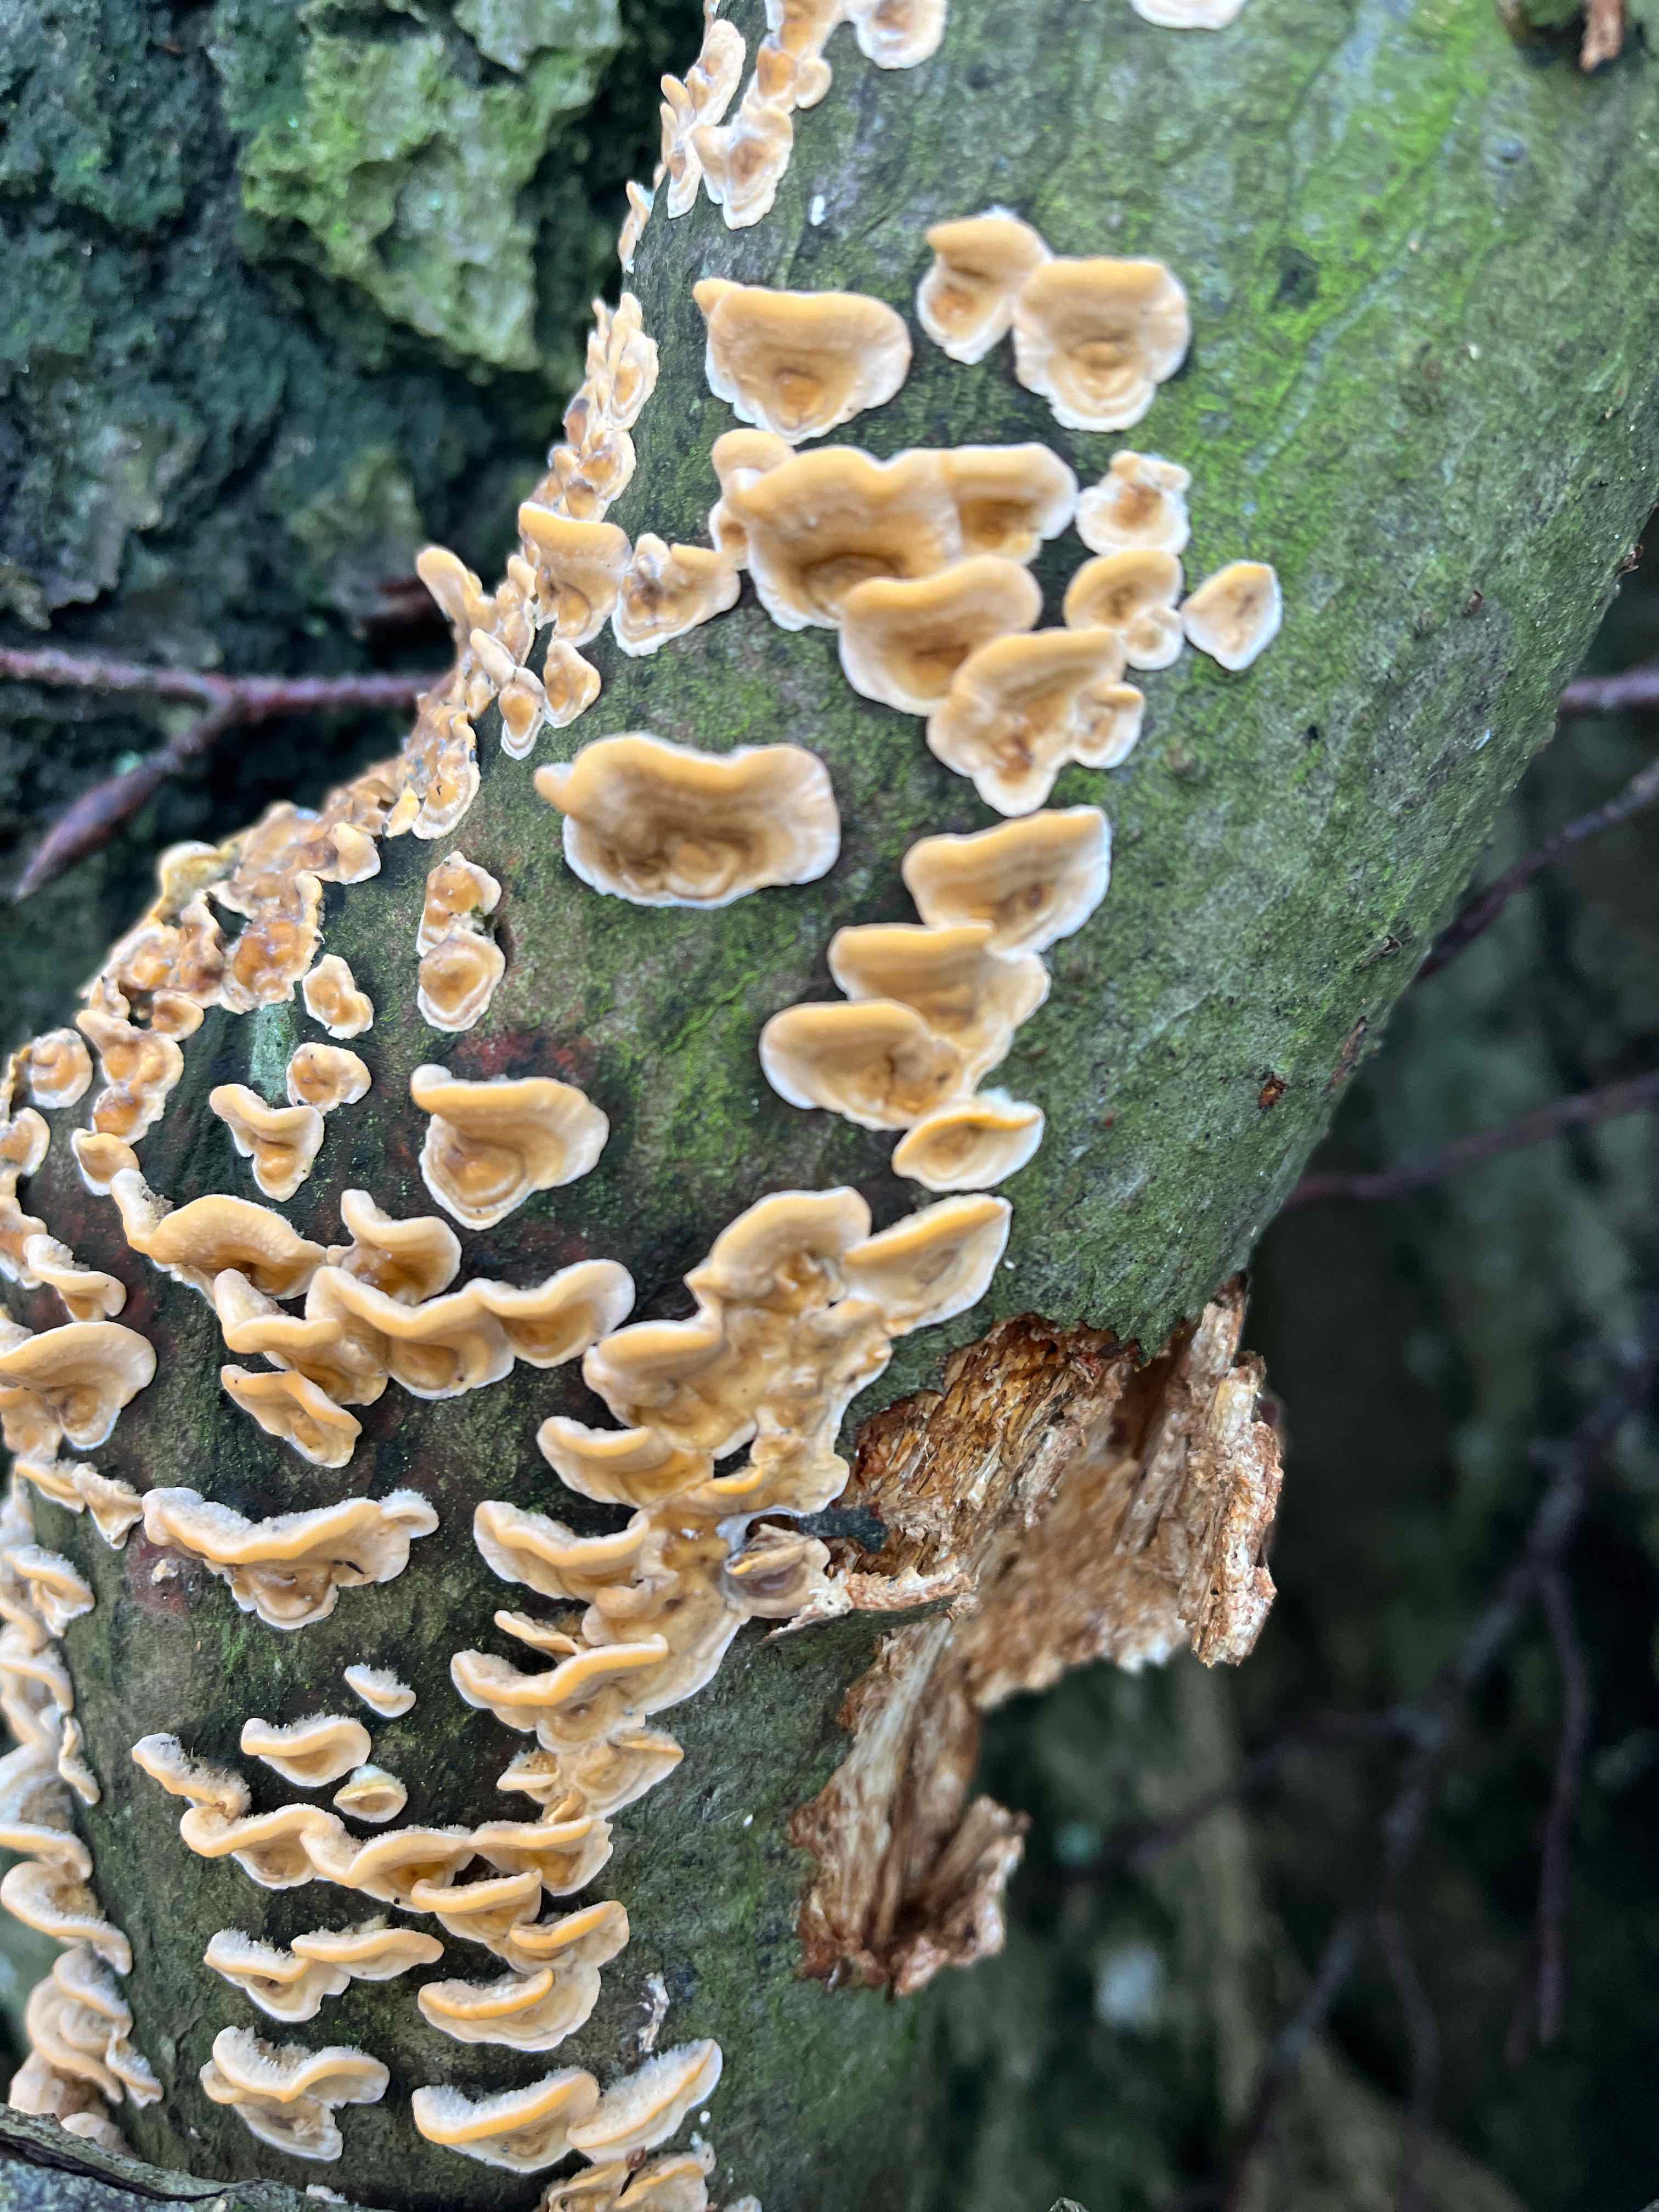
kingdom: Fungi
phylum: Basidiomycota
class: Agaricomycetes
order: Russulales
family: Stereaceae
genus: Stereum
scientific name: Stereum hirsutum
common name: håret lædersvamp
